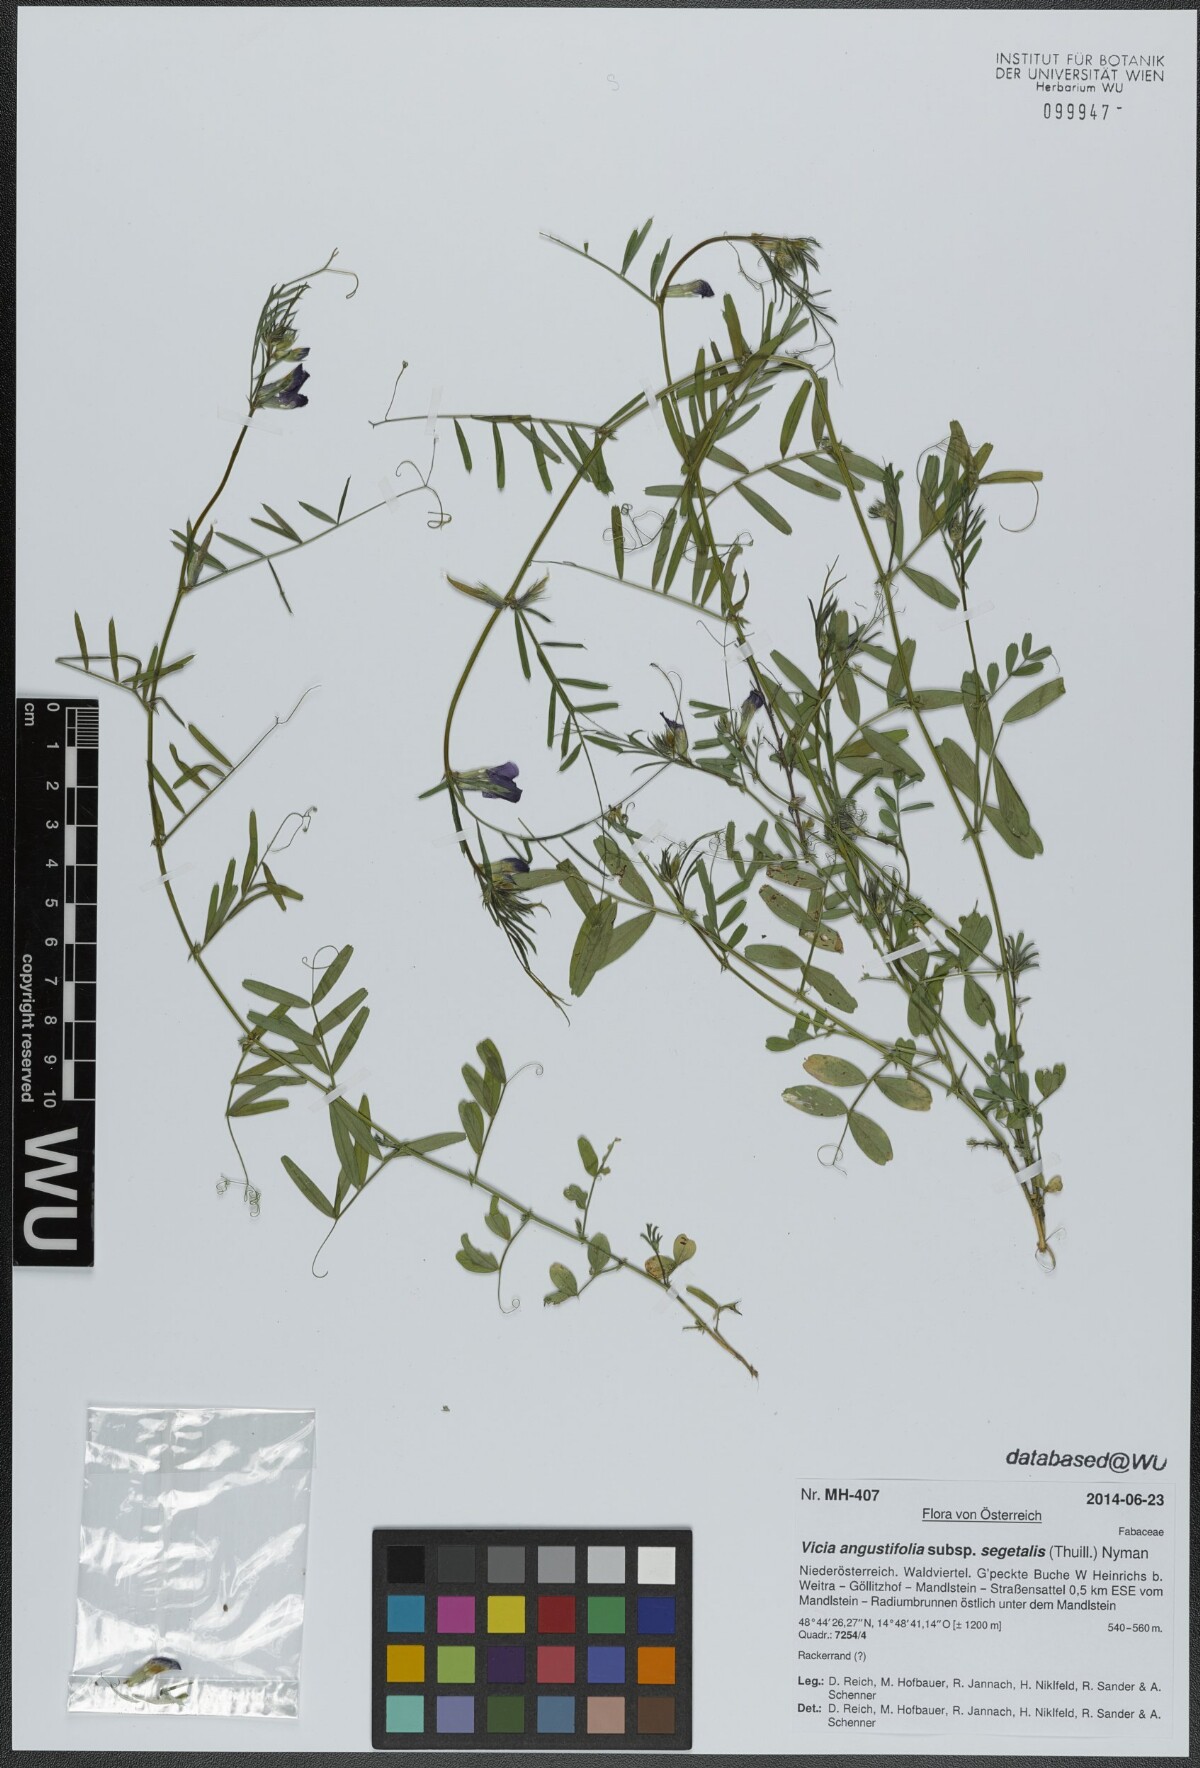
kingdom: Plantae
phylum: Tracheophyta
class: Magnoliopsida
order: Fabales
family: Fabaceae
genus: Vicia
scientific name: Vicia sativa
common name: Garden vetch
